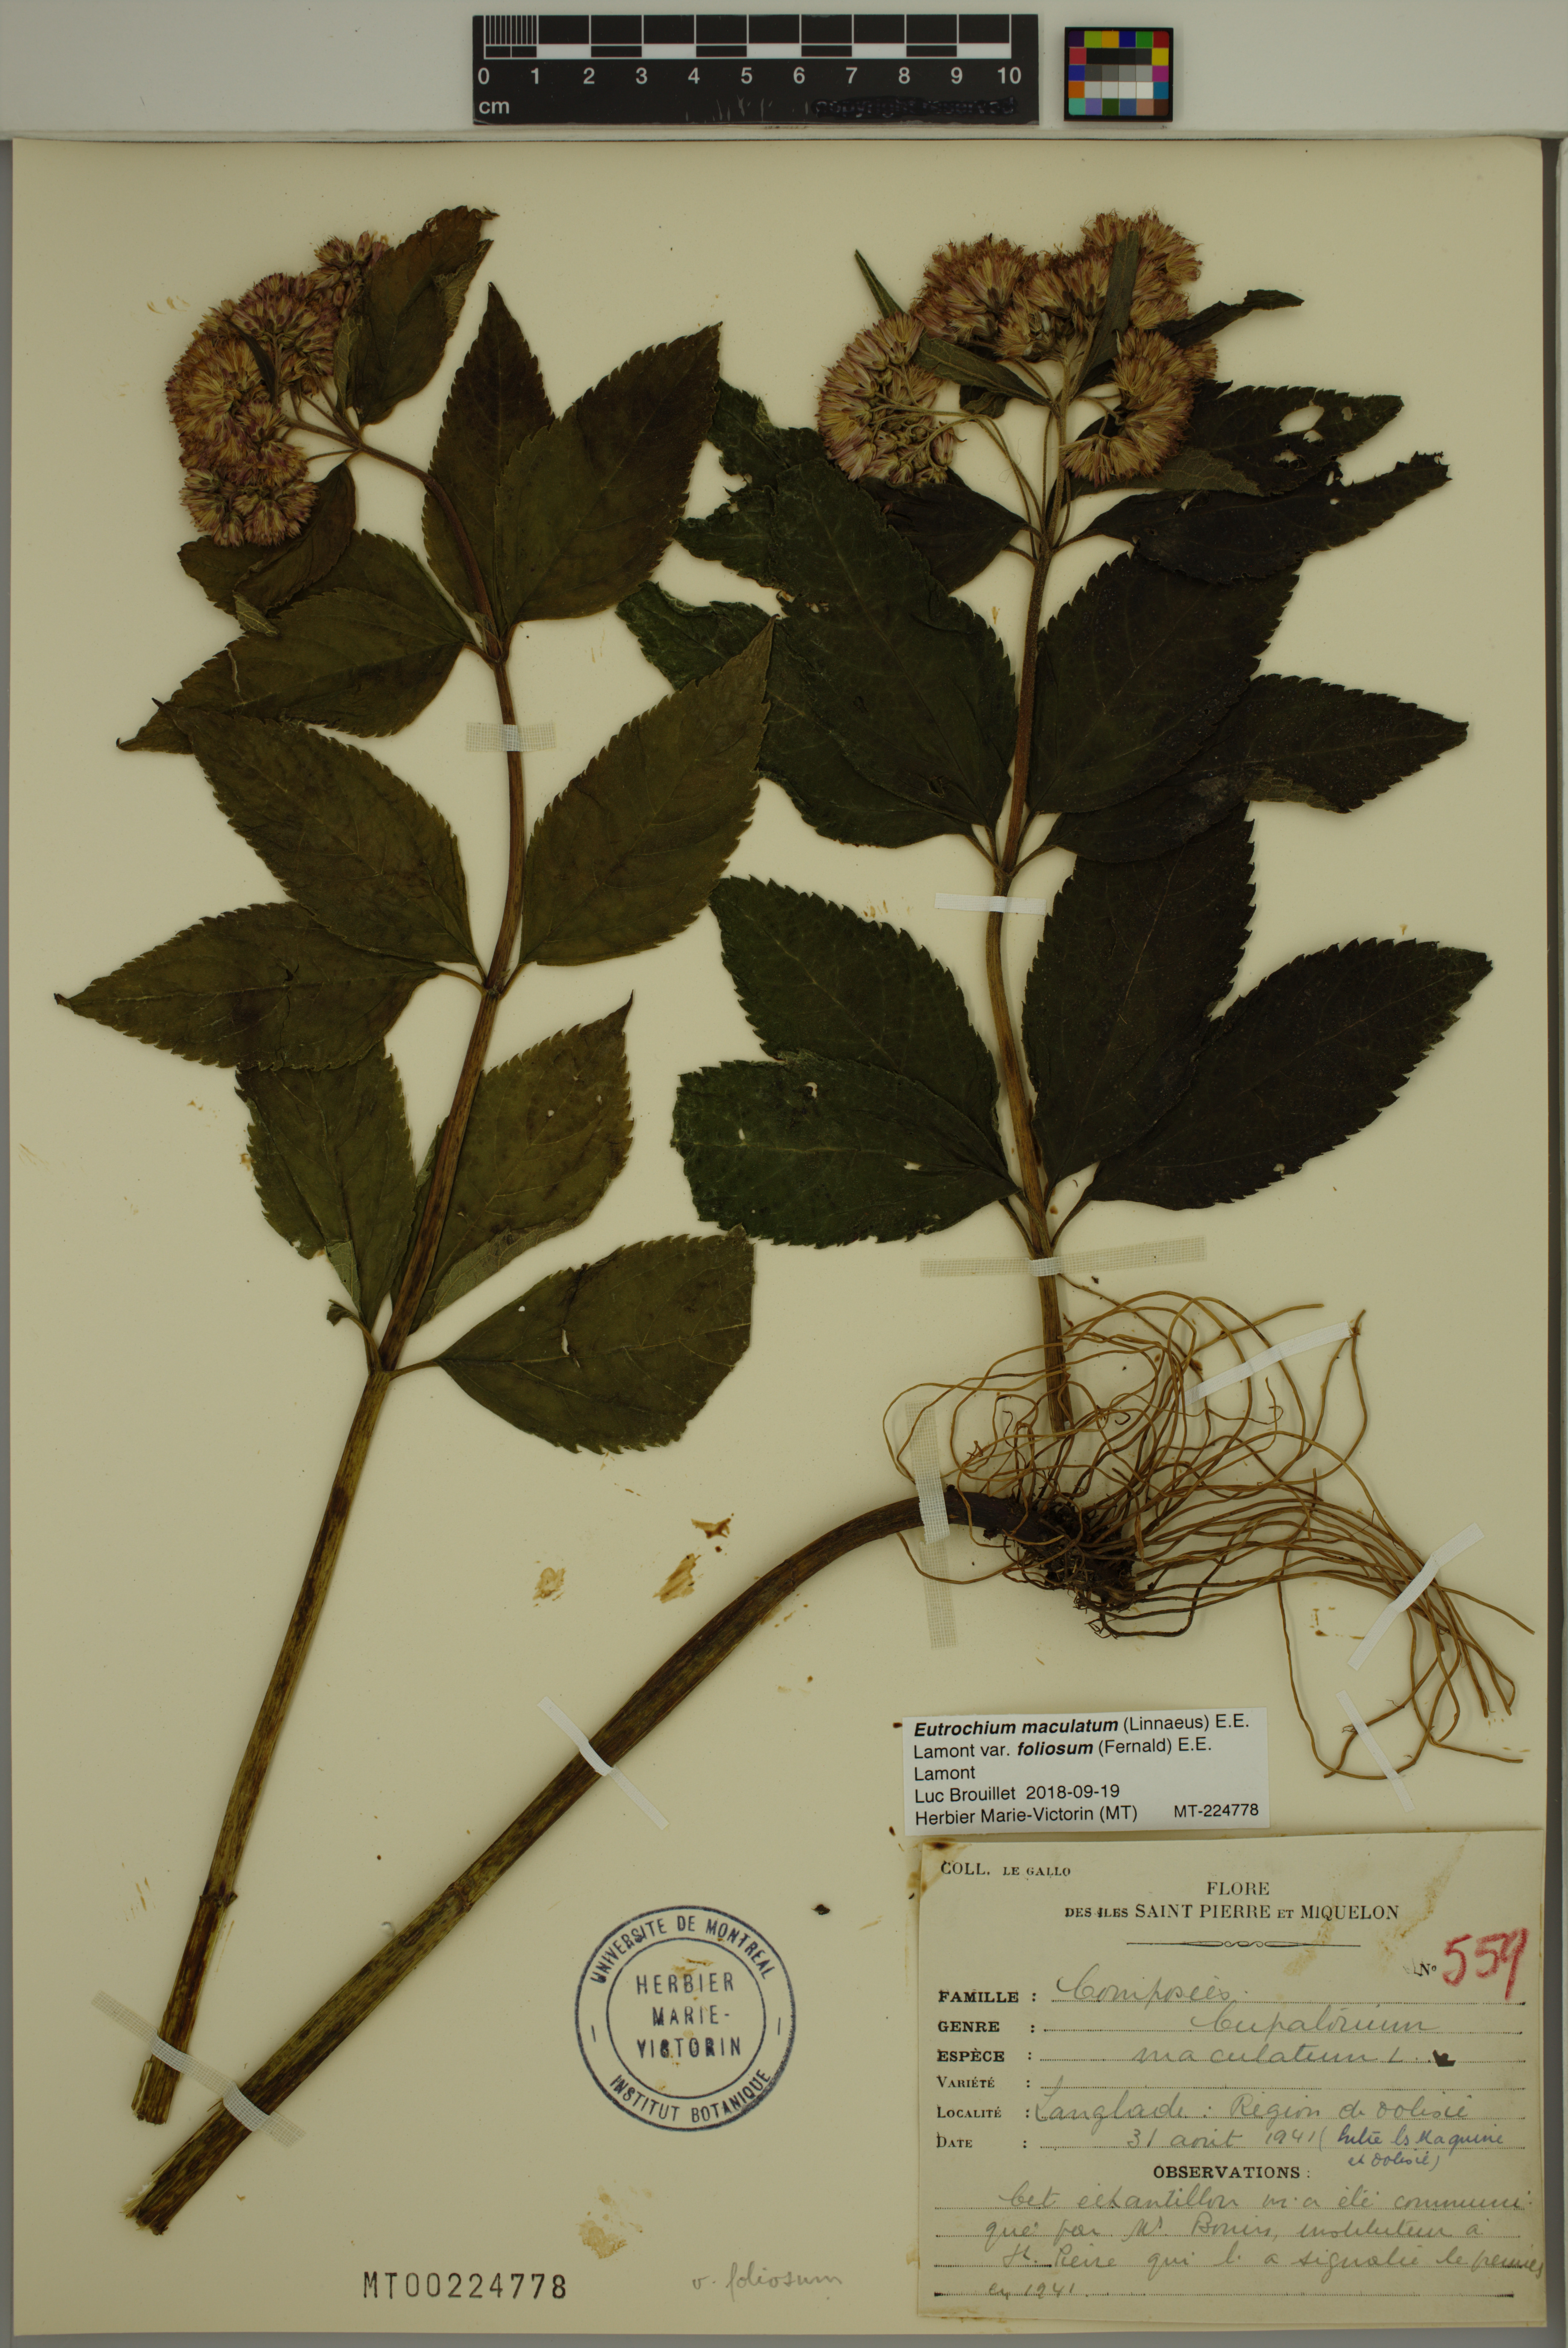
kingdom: Plantae
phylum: Tracheophyta
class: Magnoliopsida
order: Asterales
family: Asteraceae
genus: Eutrochium
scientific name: Eutrochium maculatum
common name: Spotted joe pye weed
